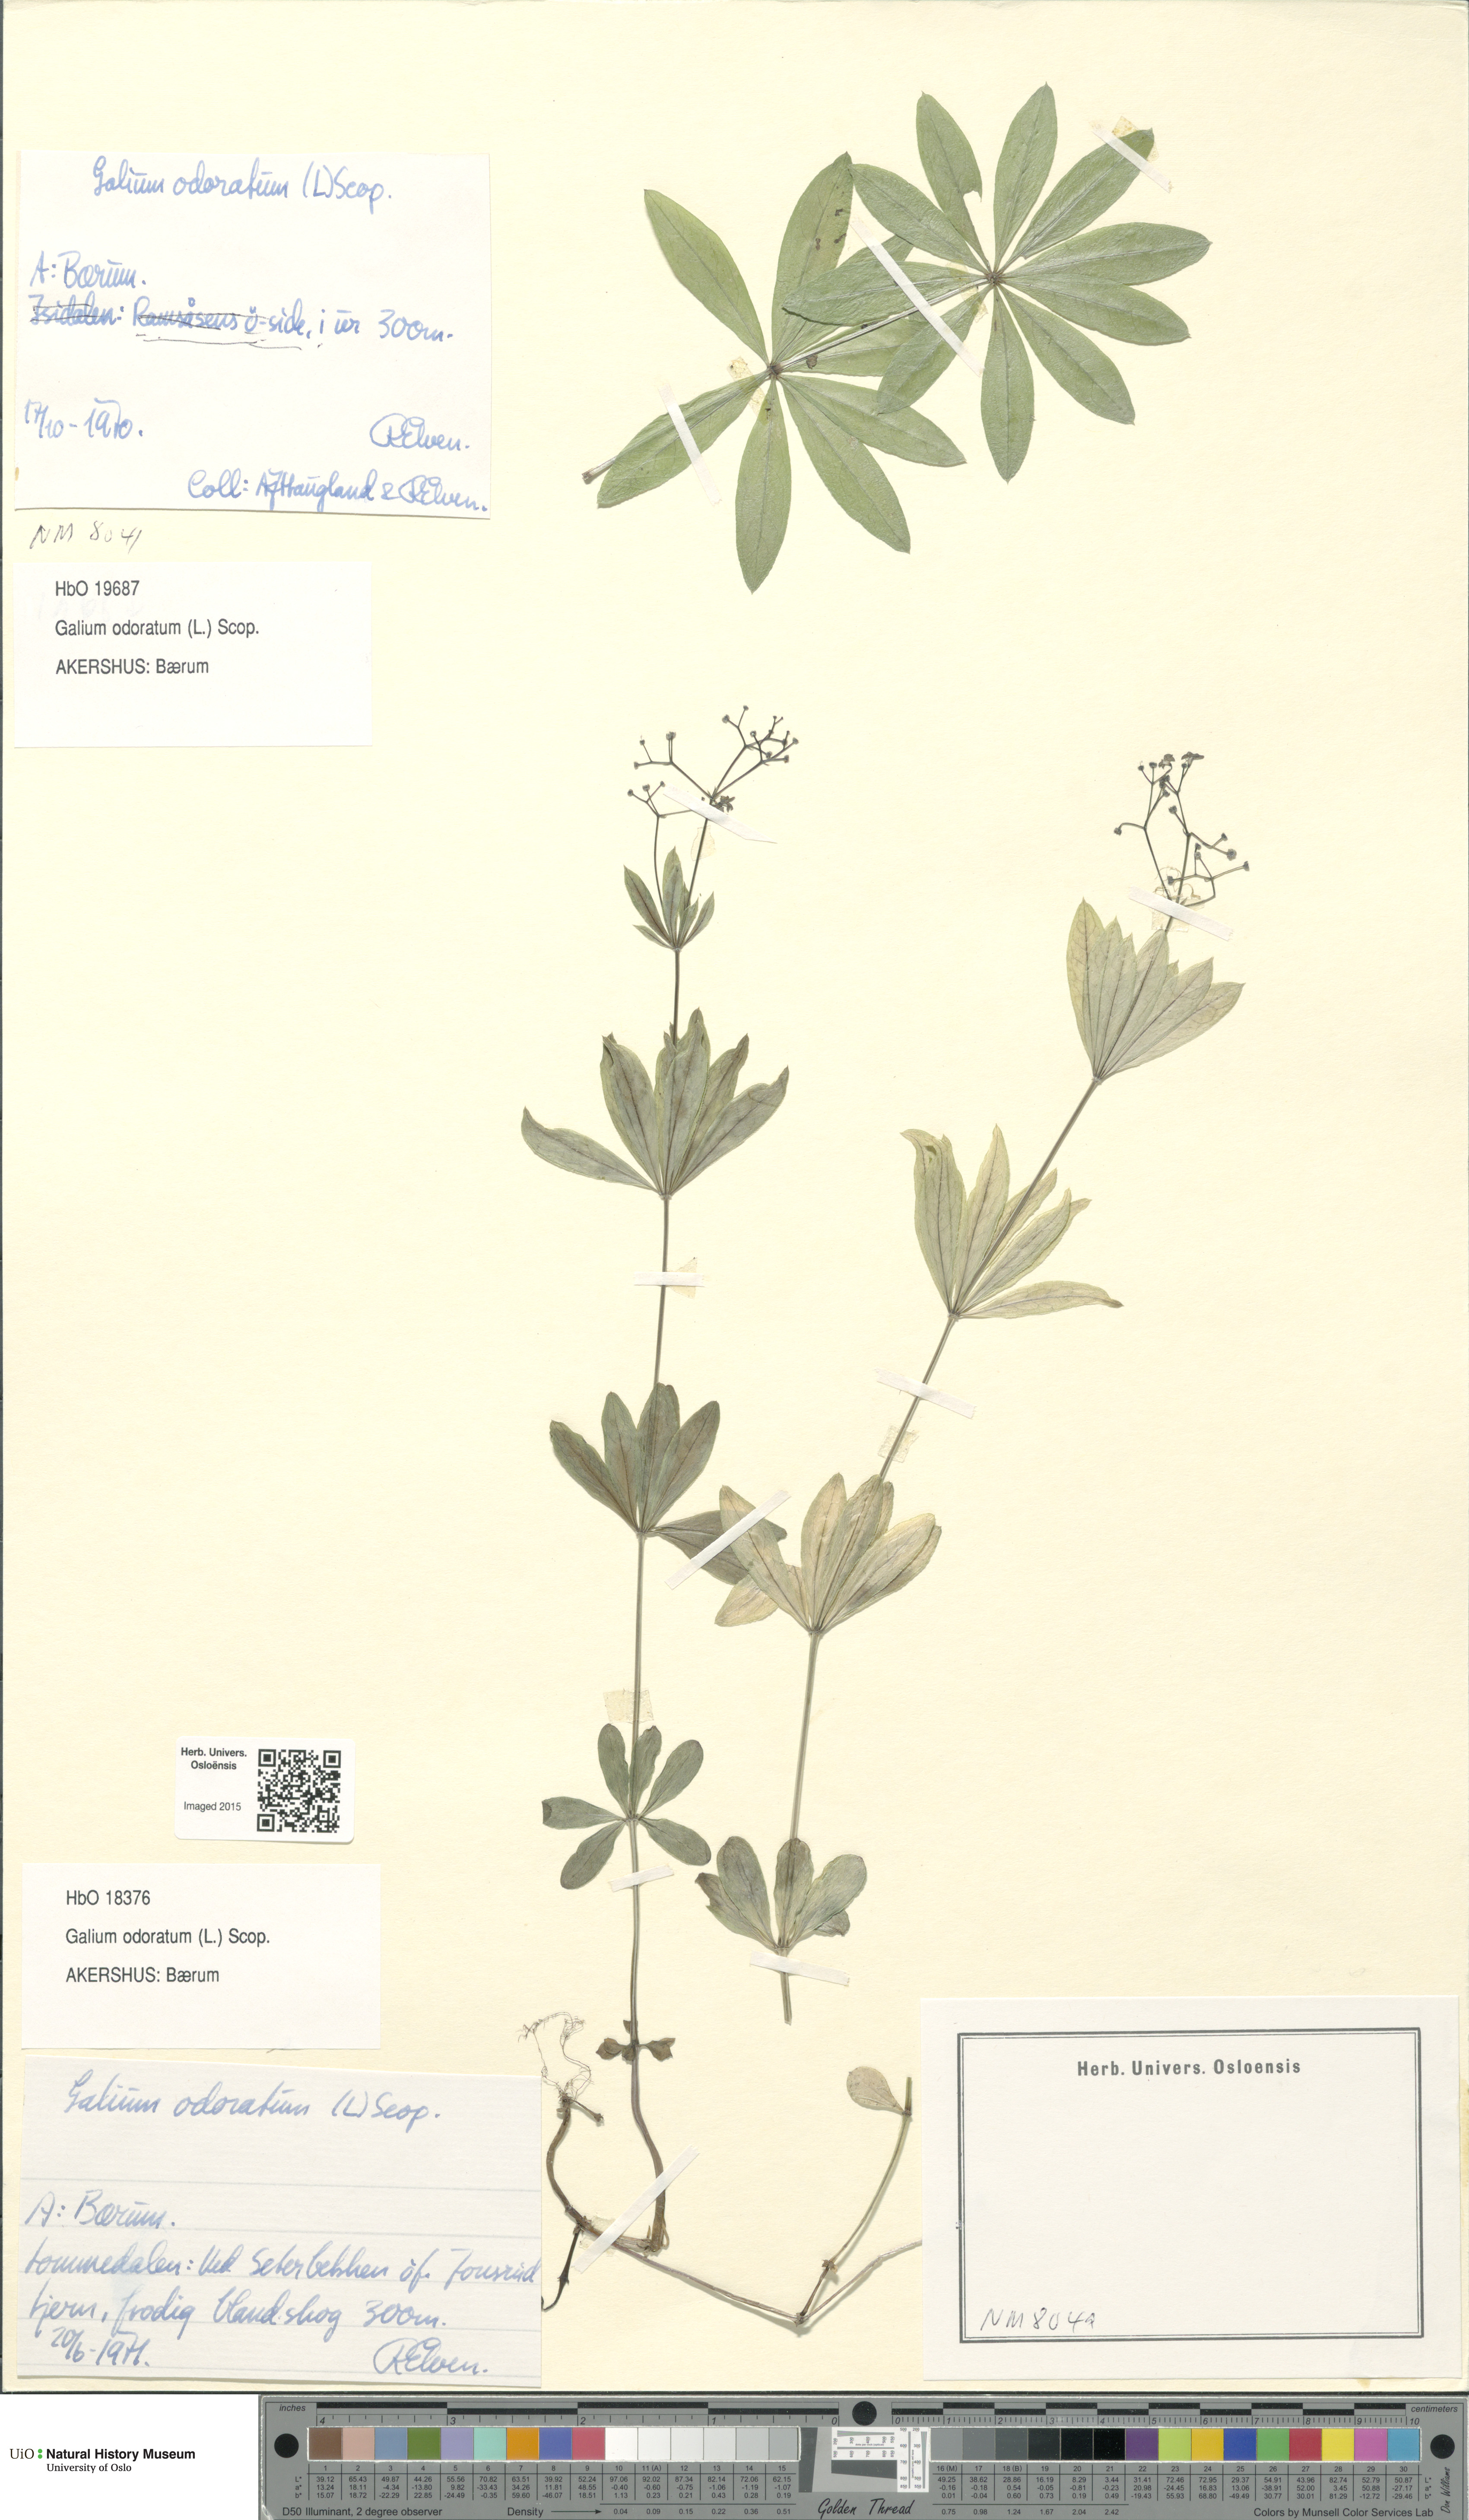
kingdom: Plantae
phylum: Tracheophyta
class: Magnoliopsida
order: Gentianales
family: Rubiaceae
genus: Galium
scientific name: Galium odoratum
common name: Sweet woodruff
